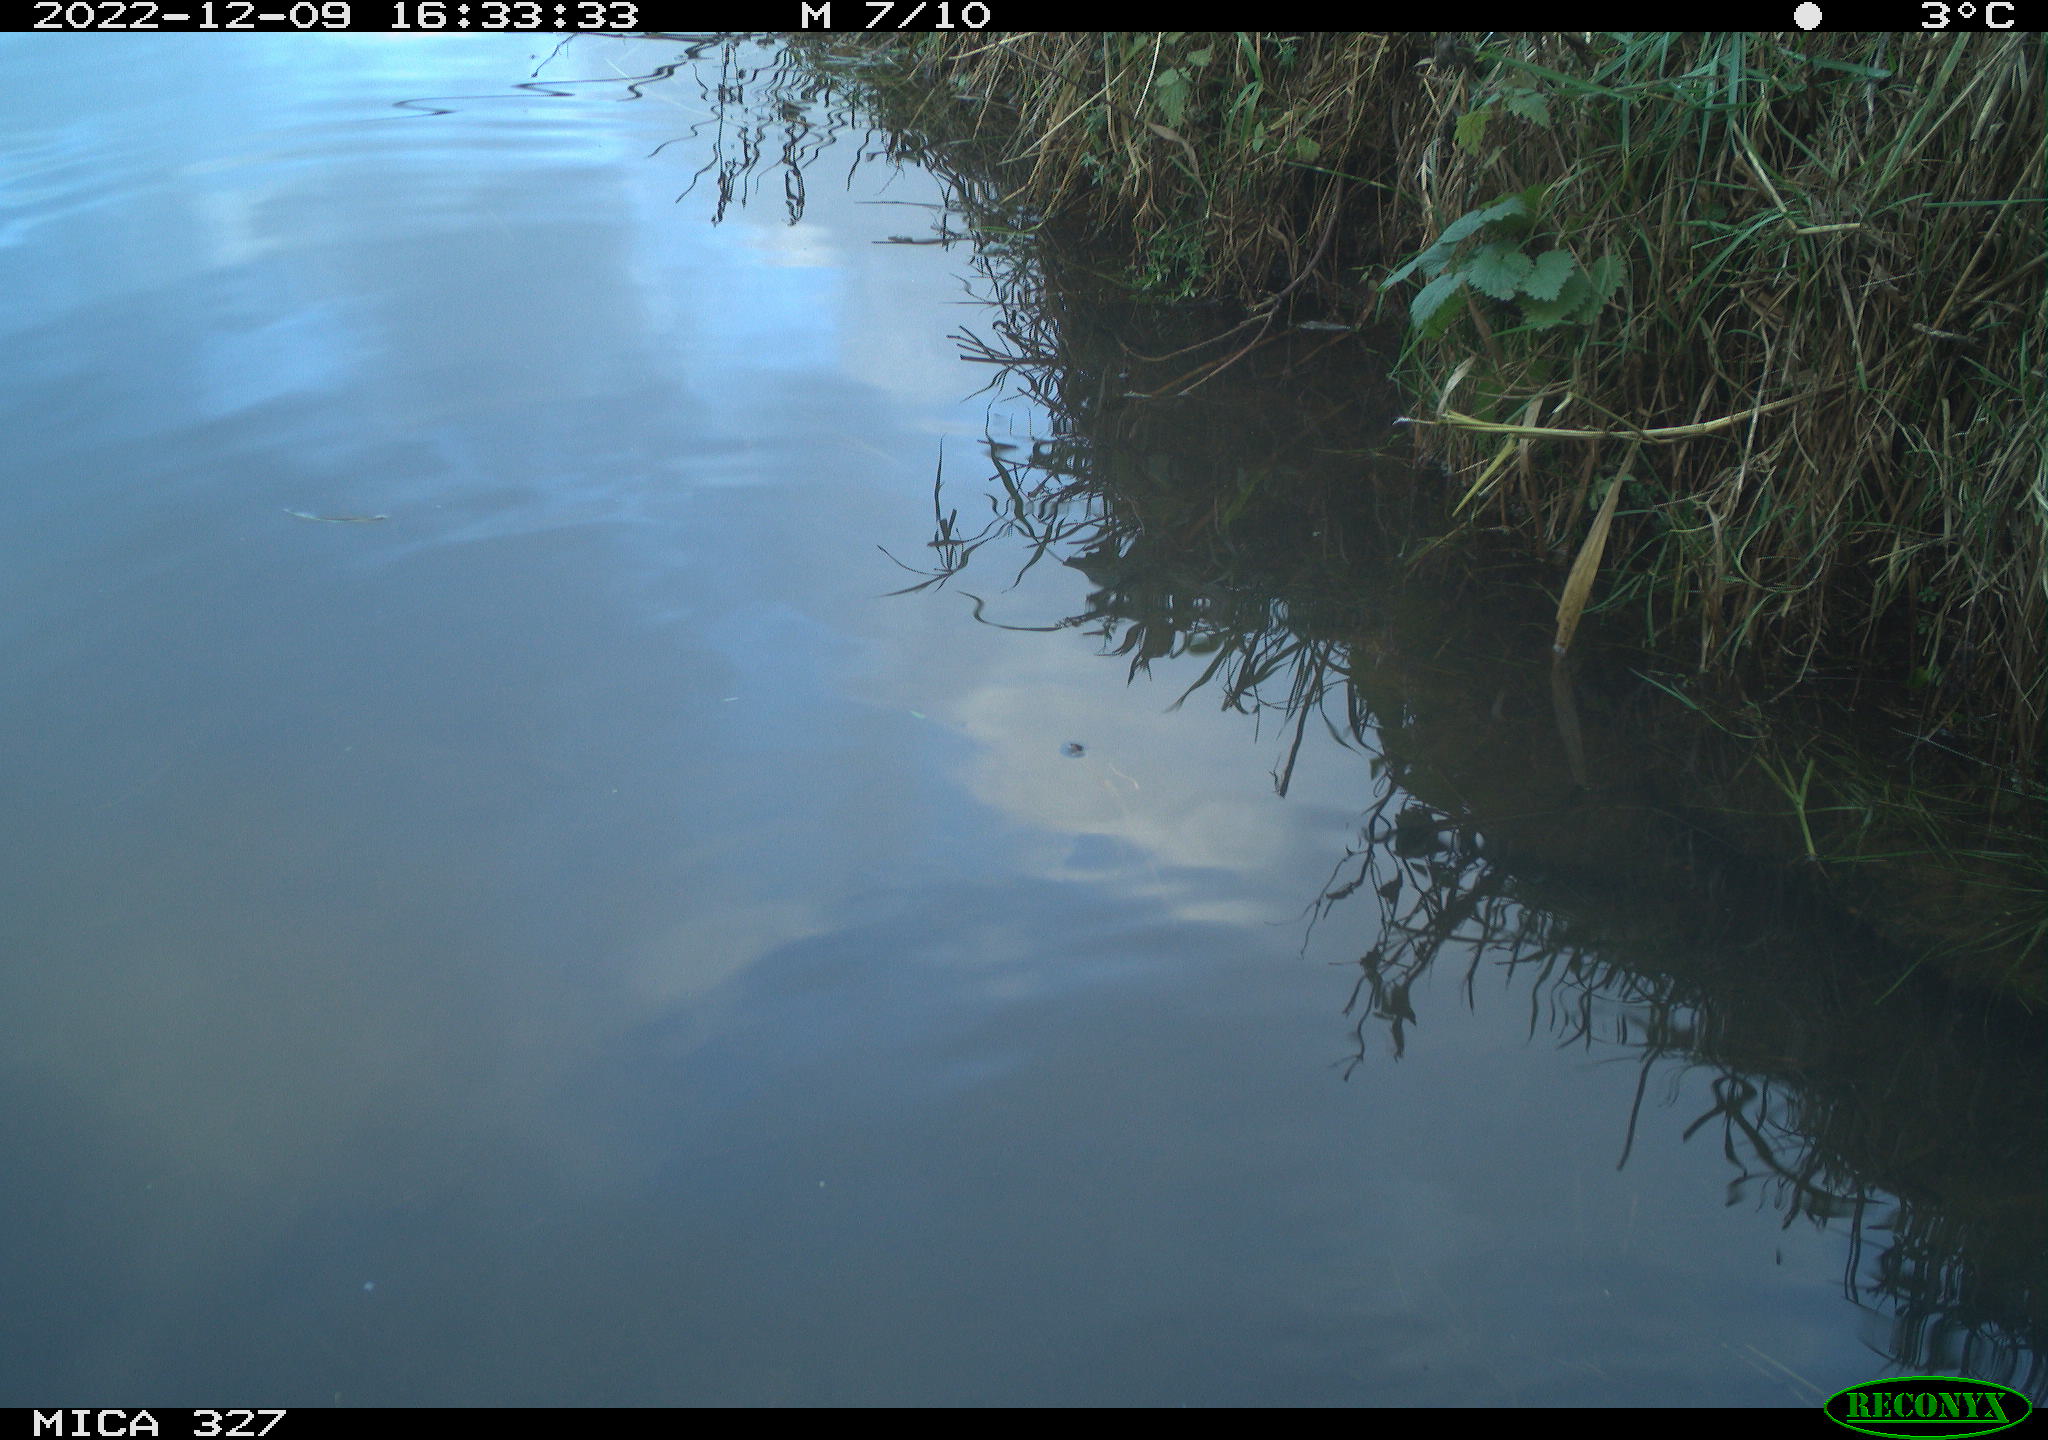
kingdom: Animalia
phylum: Chordata
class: Aves
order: Gruiformes
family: Rallidae
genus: Gallinula
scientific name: Gallinula chloropus
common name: Common moorhen
